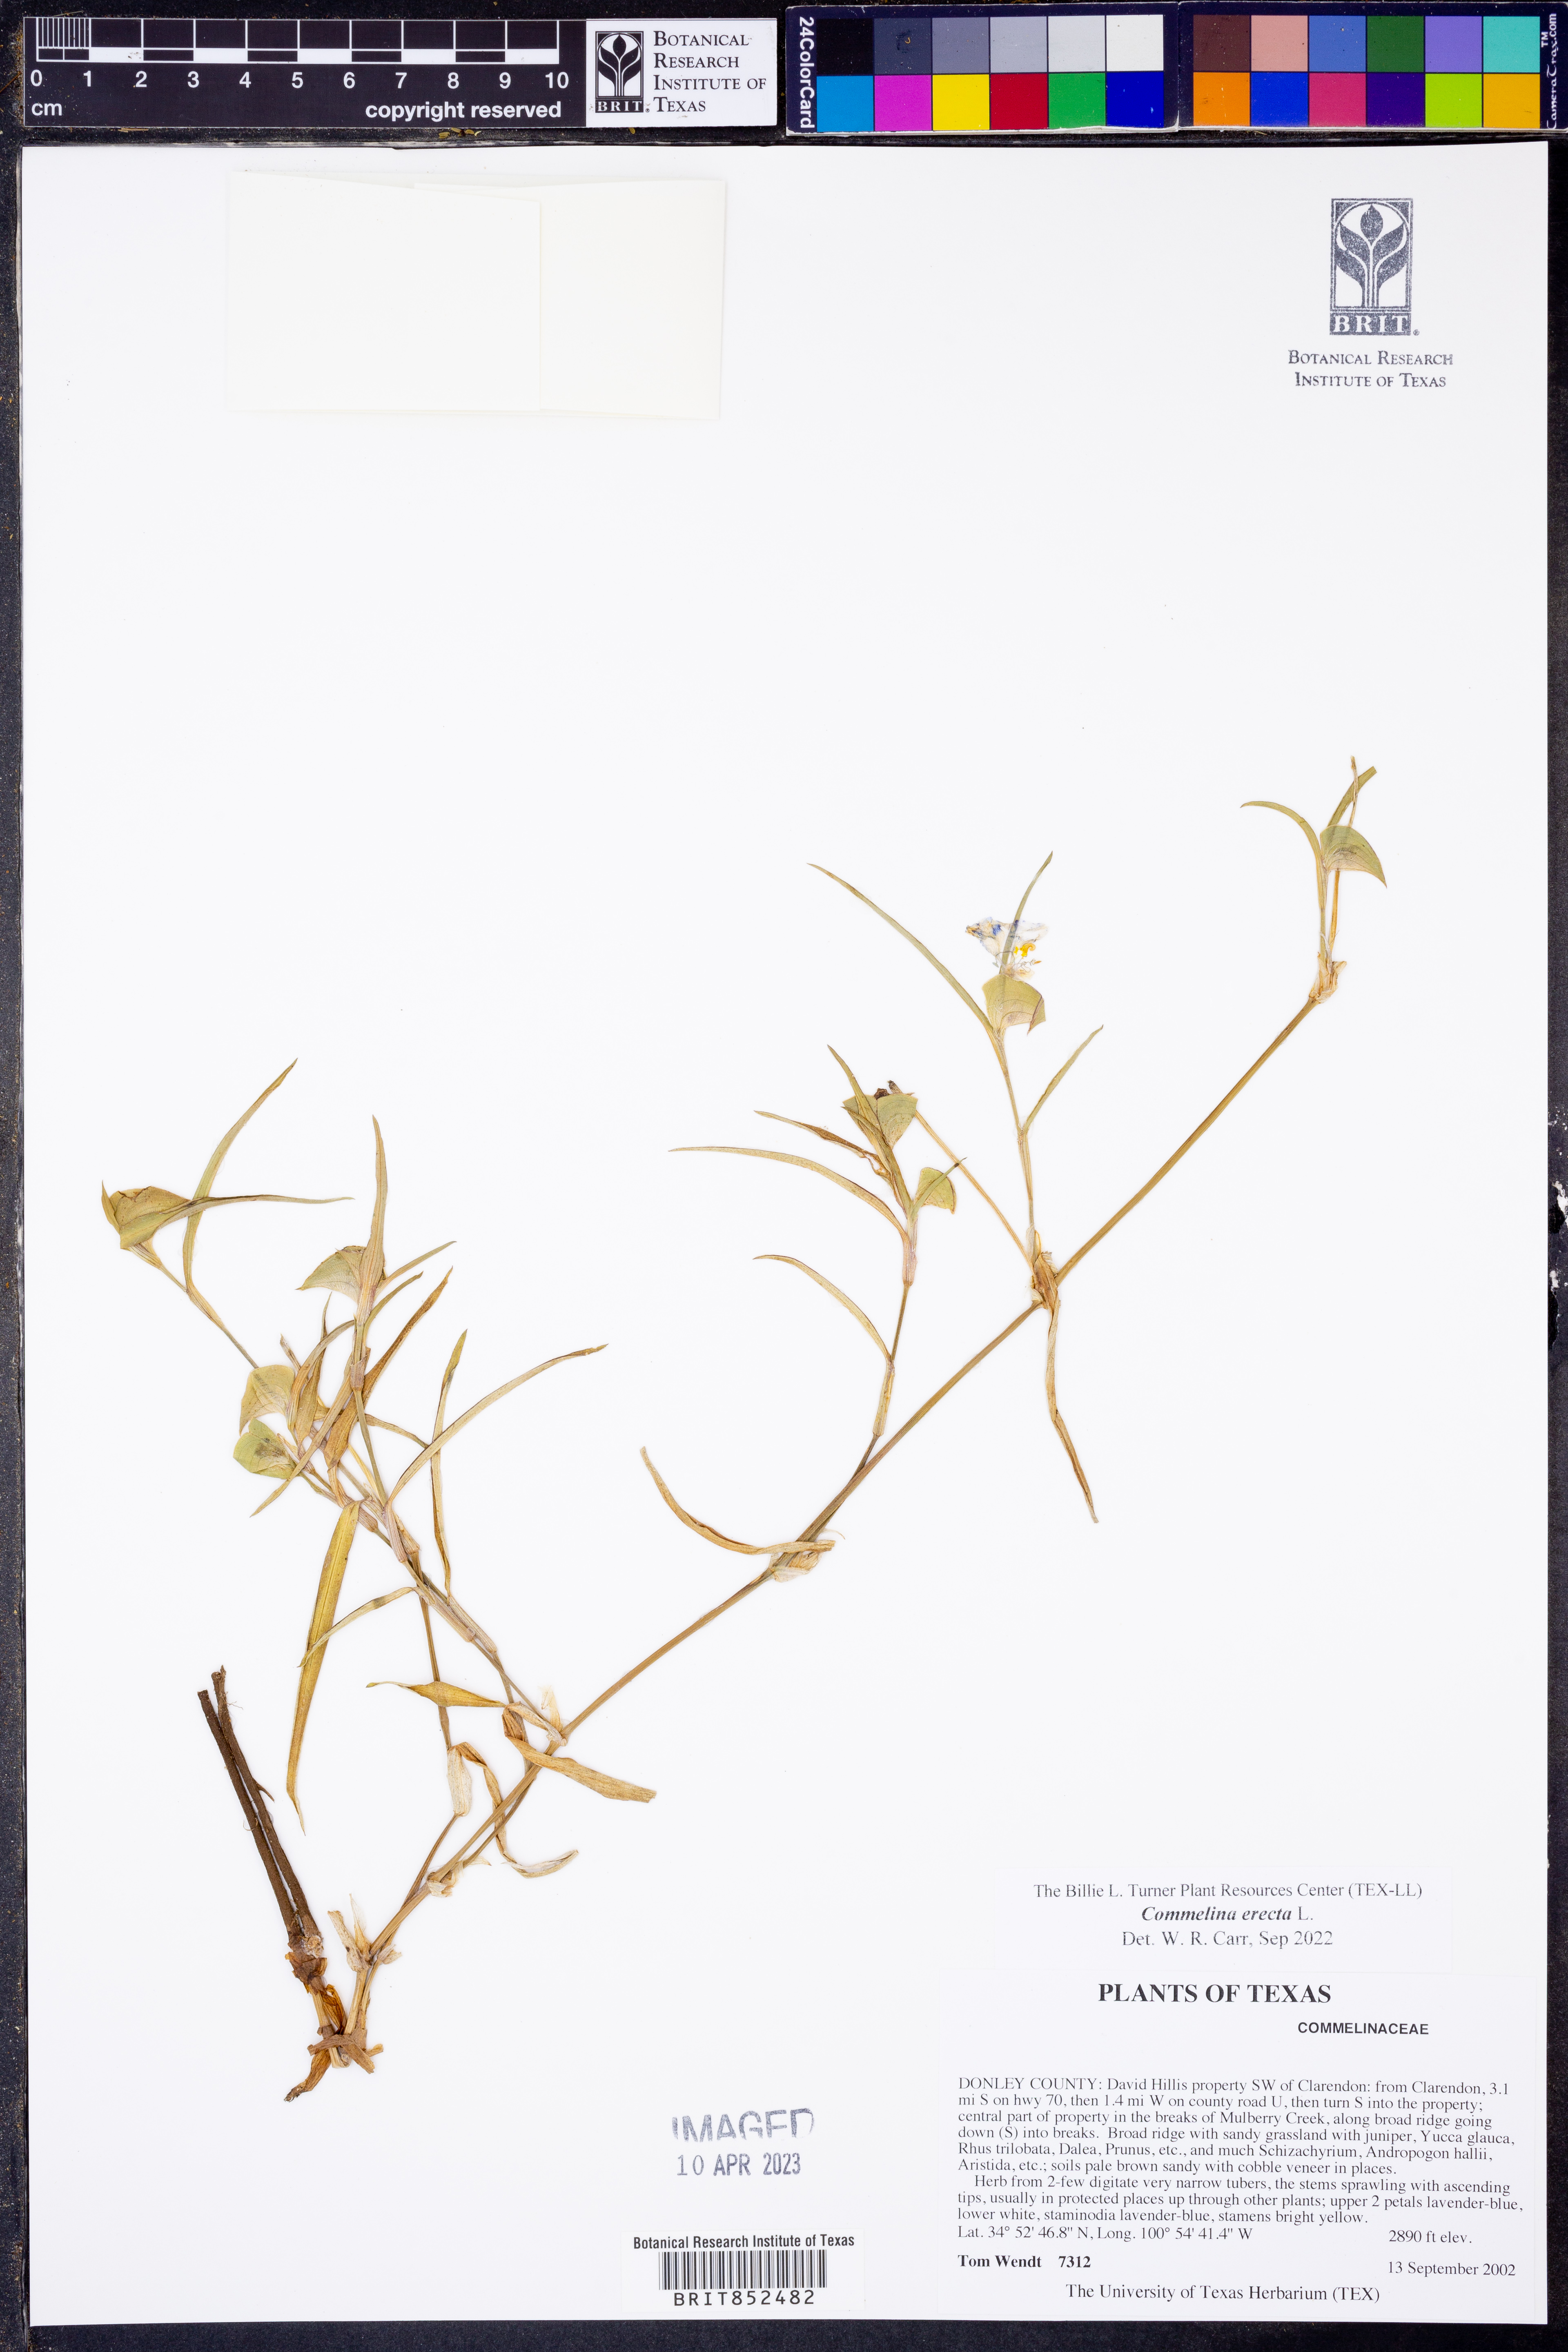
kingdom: Plantae
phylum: Tracheophyta
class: Liliopsida
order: Commelinales
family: Commelinaceae
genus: Commelina
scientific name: Commelina erecta
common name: Blousel blommetjie
